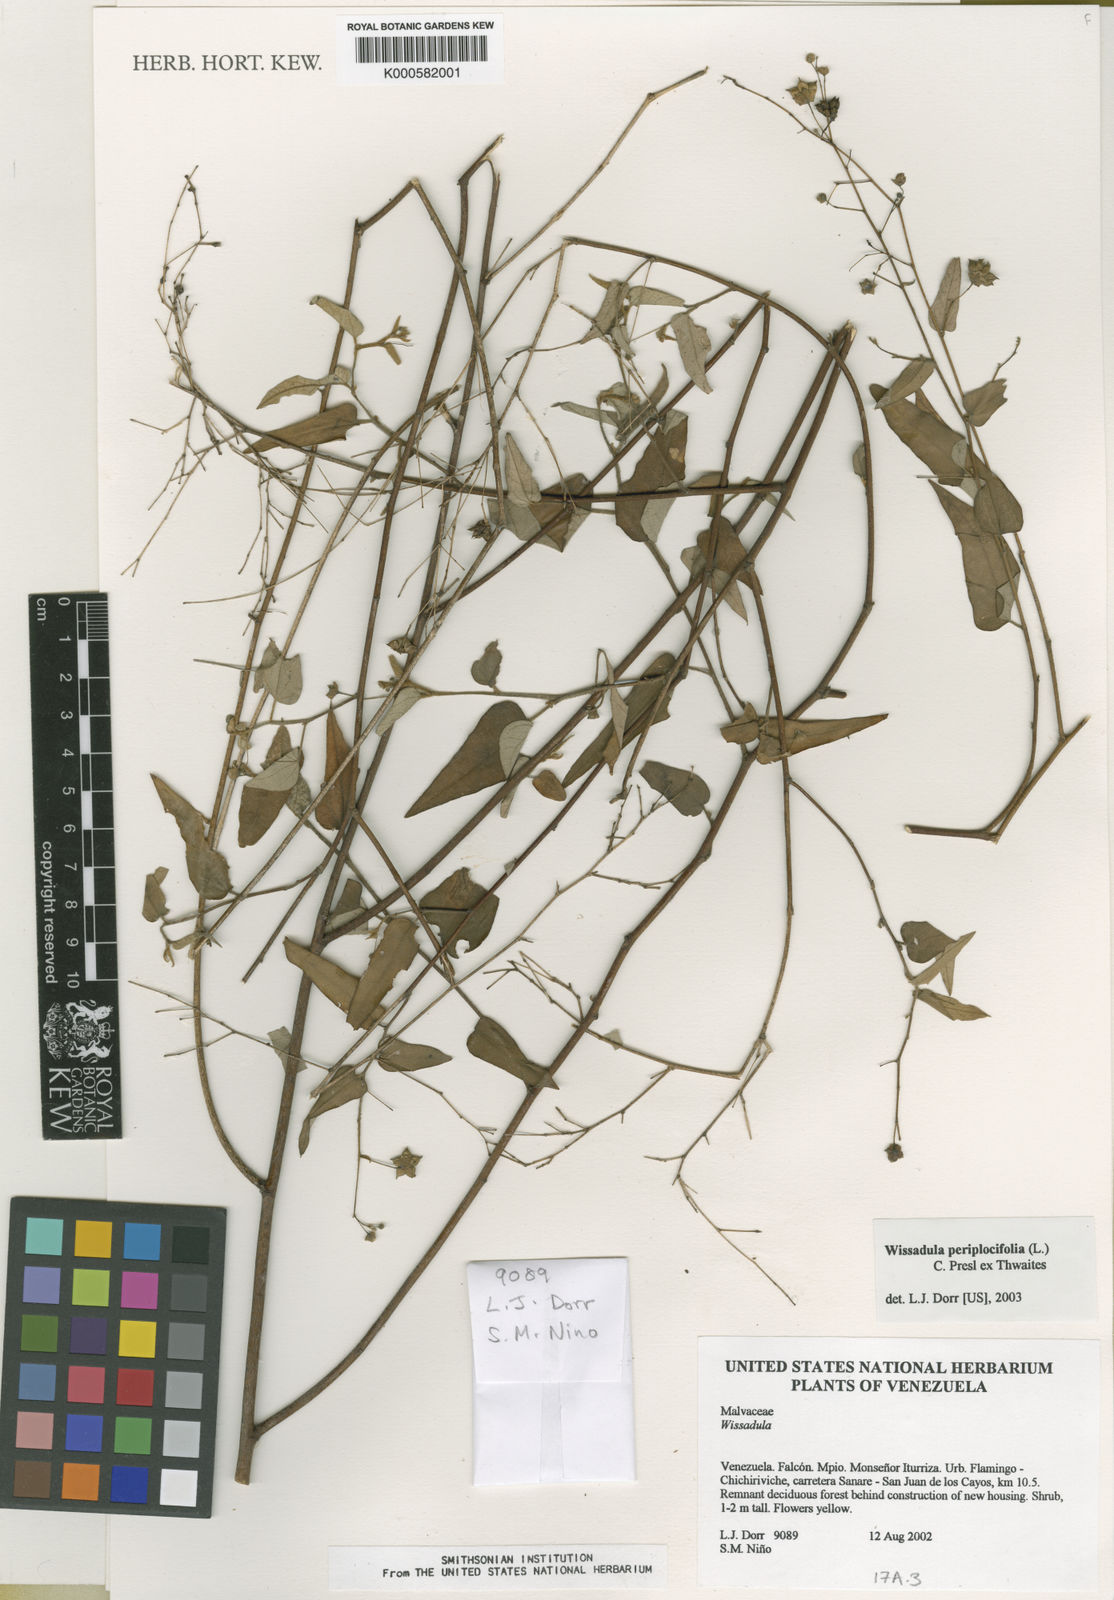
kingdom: Plantae
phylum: Tracheophyta
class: Magnoliopsida
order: Malvales
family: Malvaceae
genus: Wissadula
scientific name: Wissadula periplocifolia
